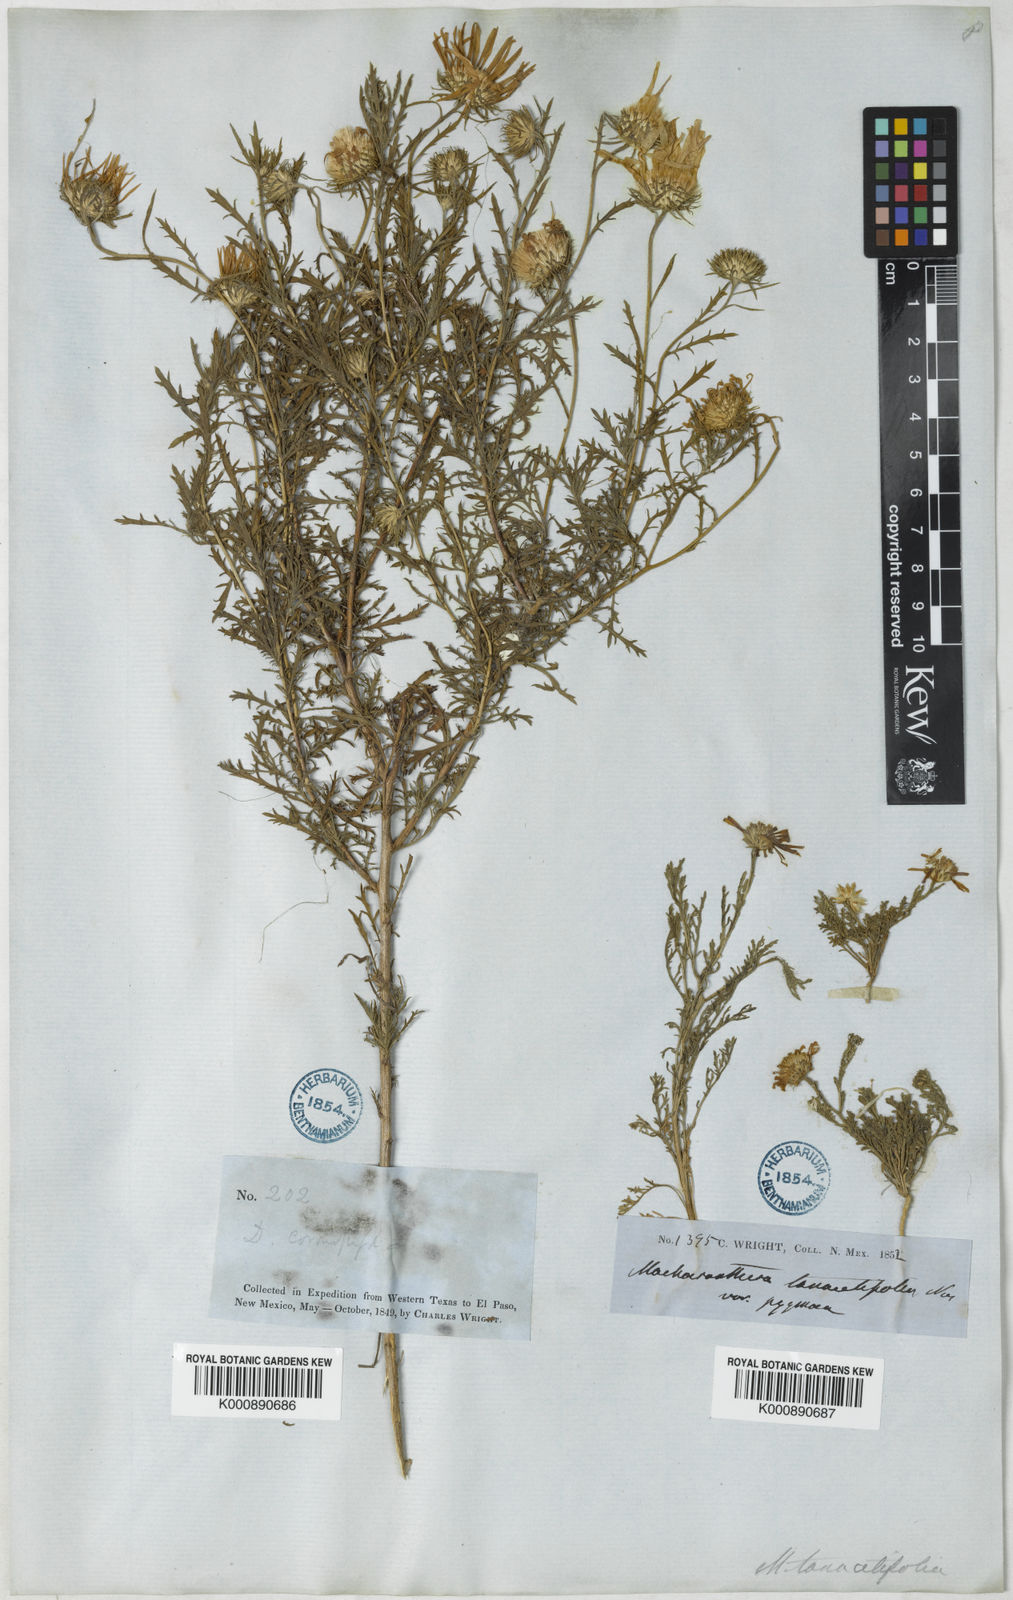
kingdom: Plantae
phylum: Tracheophyta
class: Magnoliopsida
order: Asterales
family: Asteraceae
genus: Leucosyris
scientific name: Leucosyris parviflora
